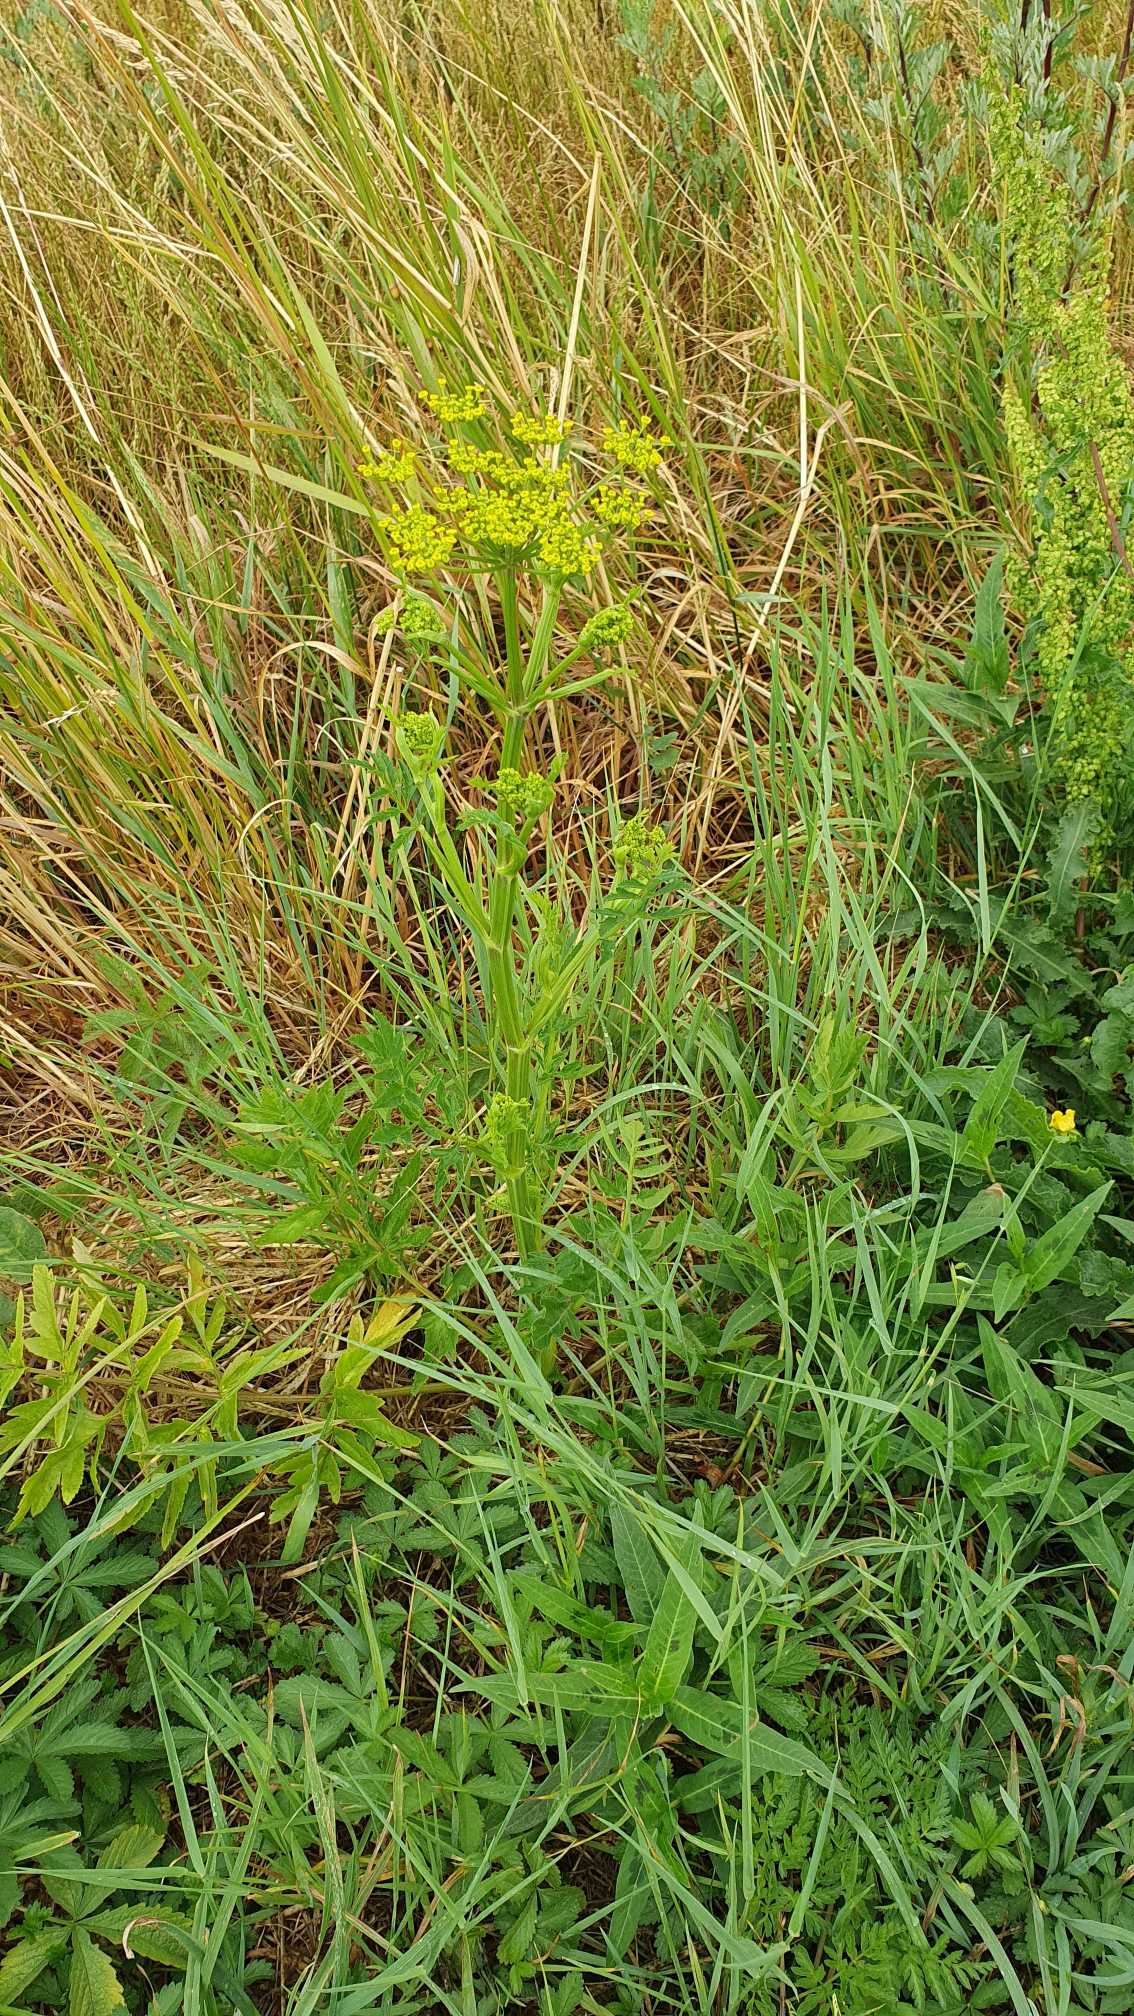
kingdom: Plantae
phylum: Tracheophyta
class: Magnoliopsida
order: Apiales
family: Apiaceae
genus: Pastinaca
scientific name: Pastinaca sativa
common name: Have-pastinak
